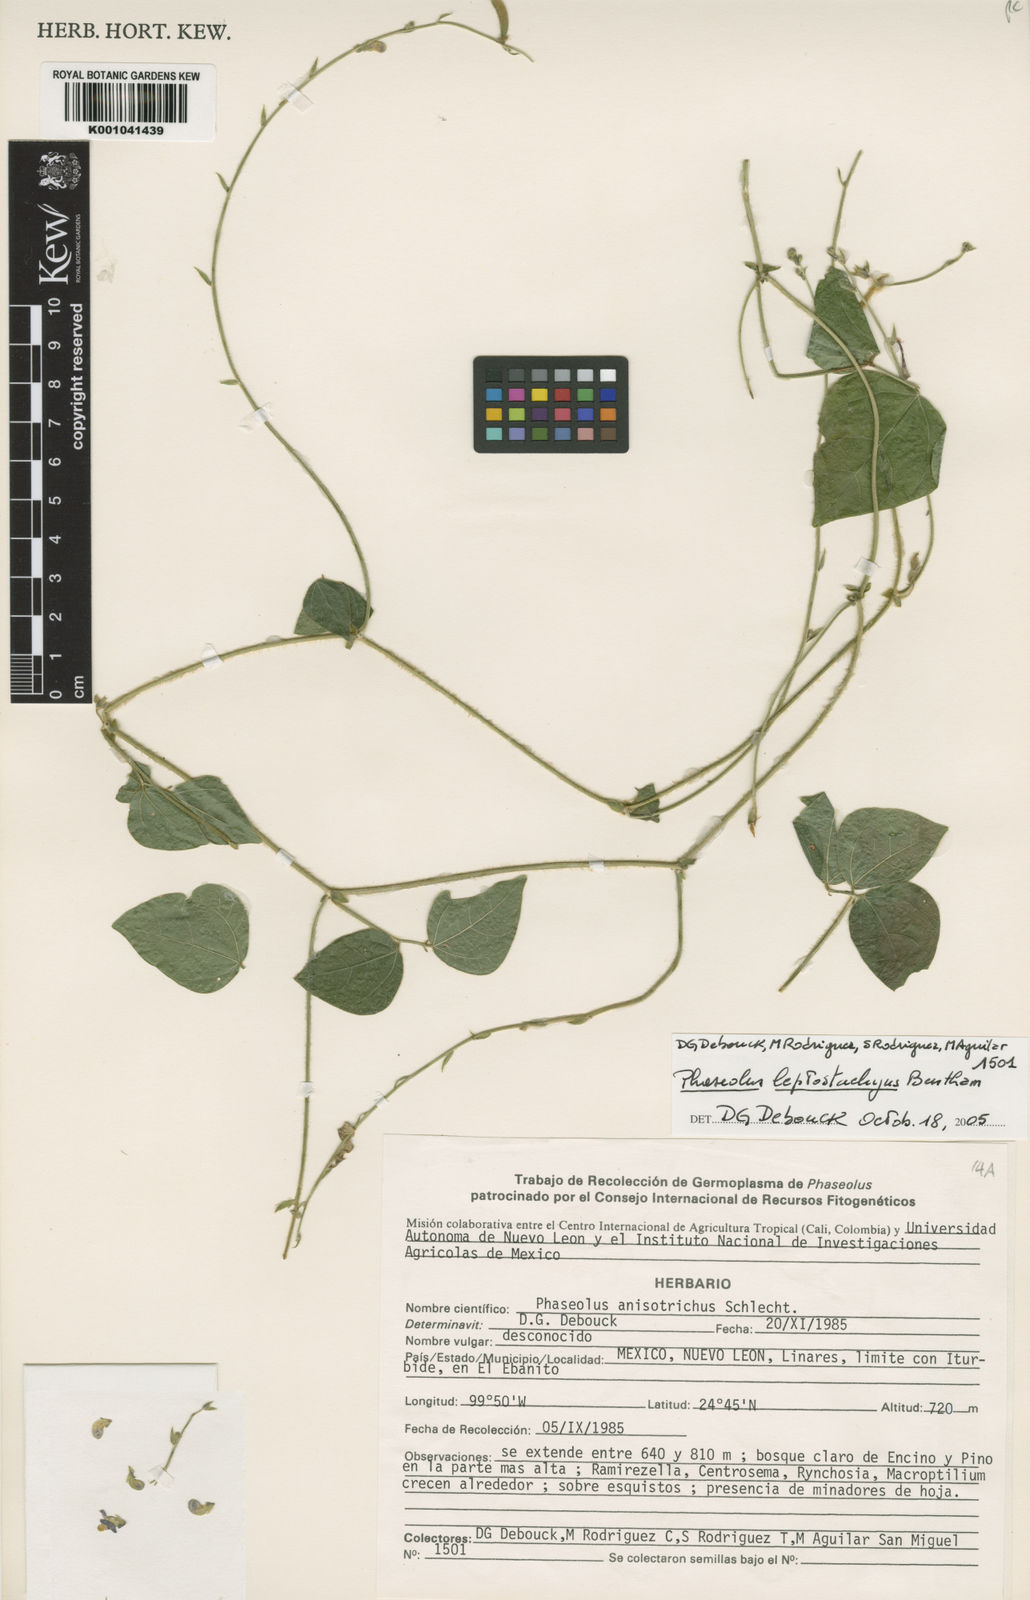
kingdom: Plantae
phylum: Tracheophyta
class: Magnoliopsida
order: Fabales
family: Fabaceae
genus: Phaseolus
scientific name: Phaseolus
